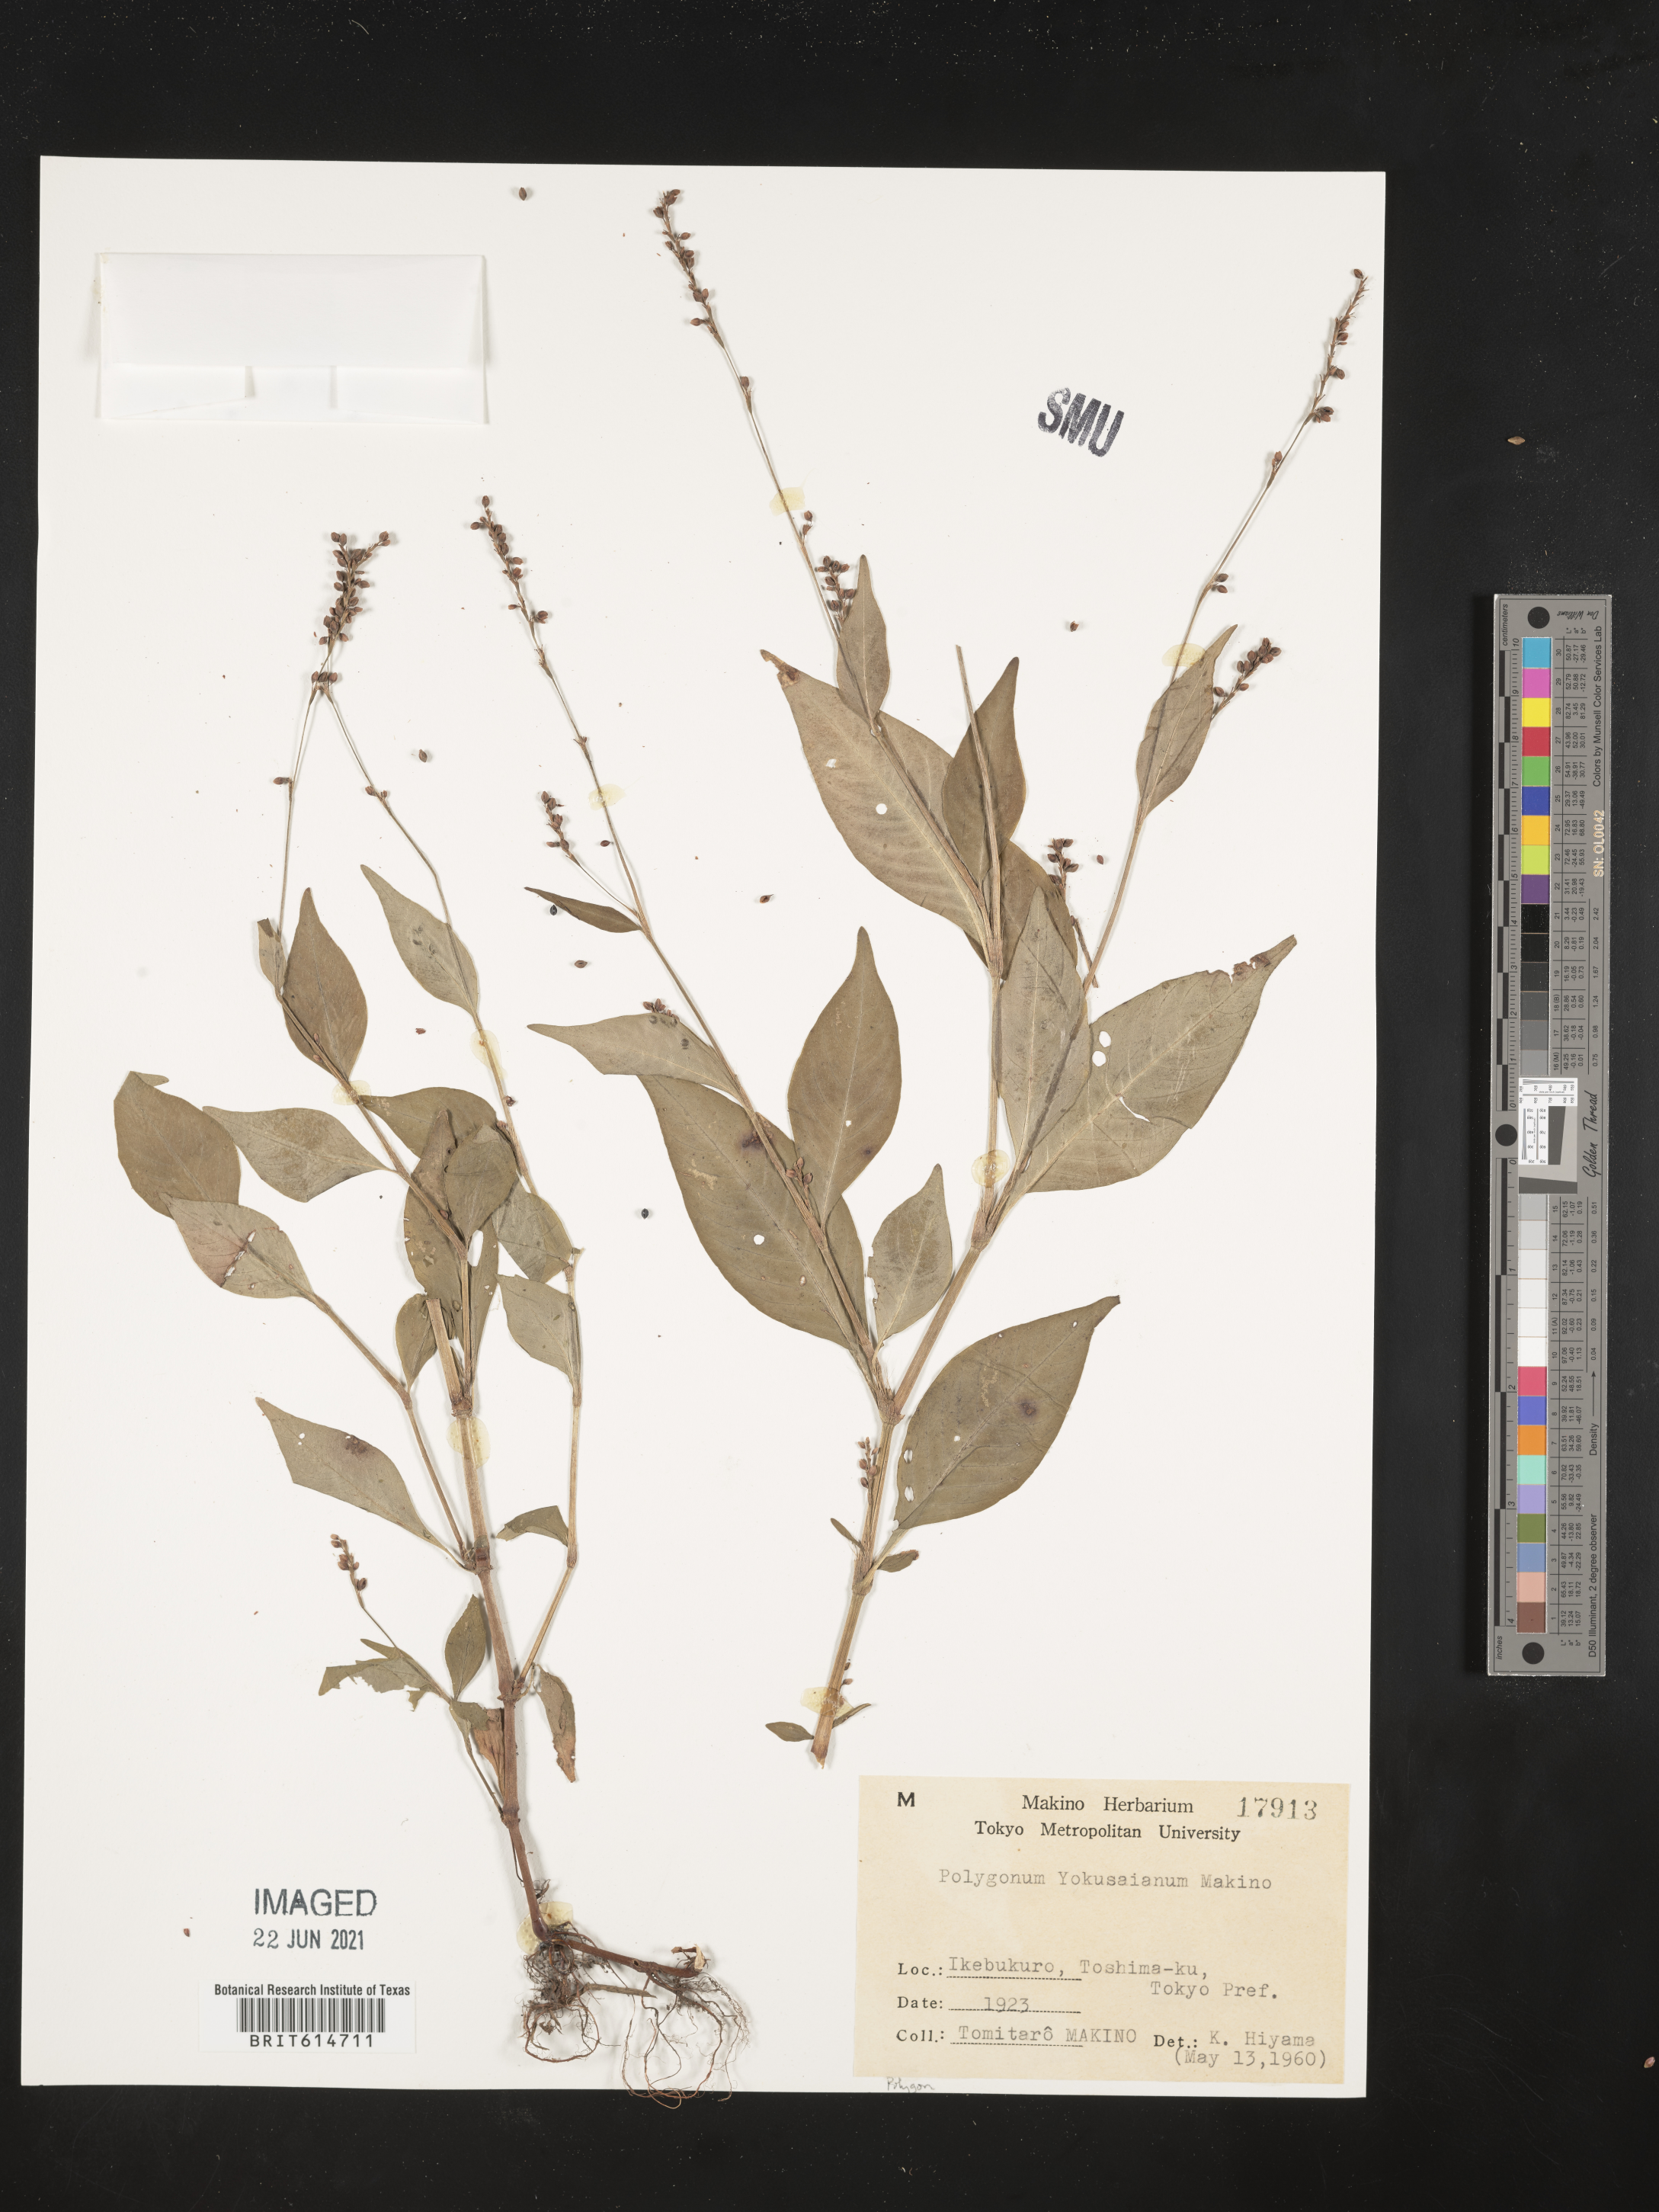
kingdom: Plantae
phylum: Tracheophyta
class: Magnoliopsida
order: Caryophyllales
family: Polygonaceae
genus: Persicaria
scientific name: Persicaria posumbu
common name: Oriental lady's thumb
